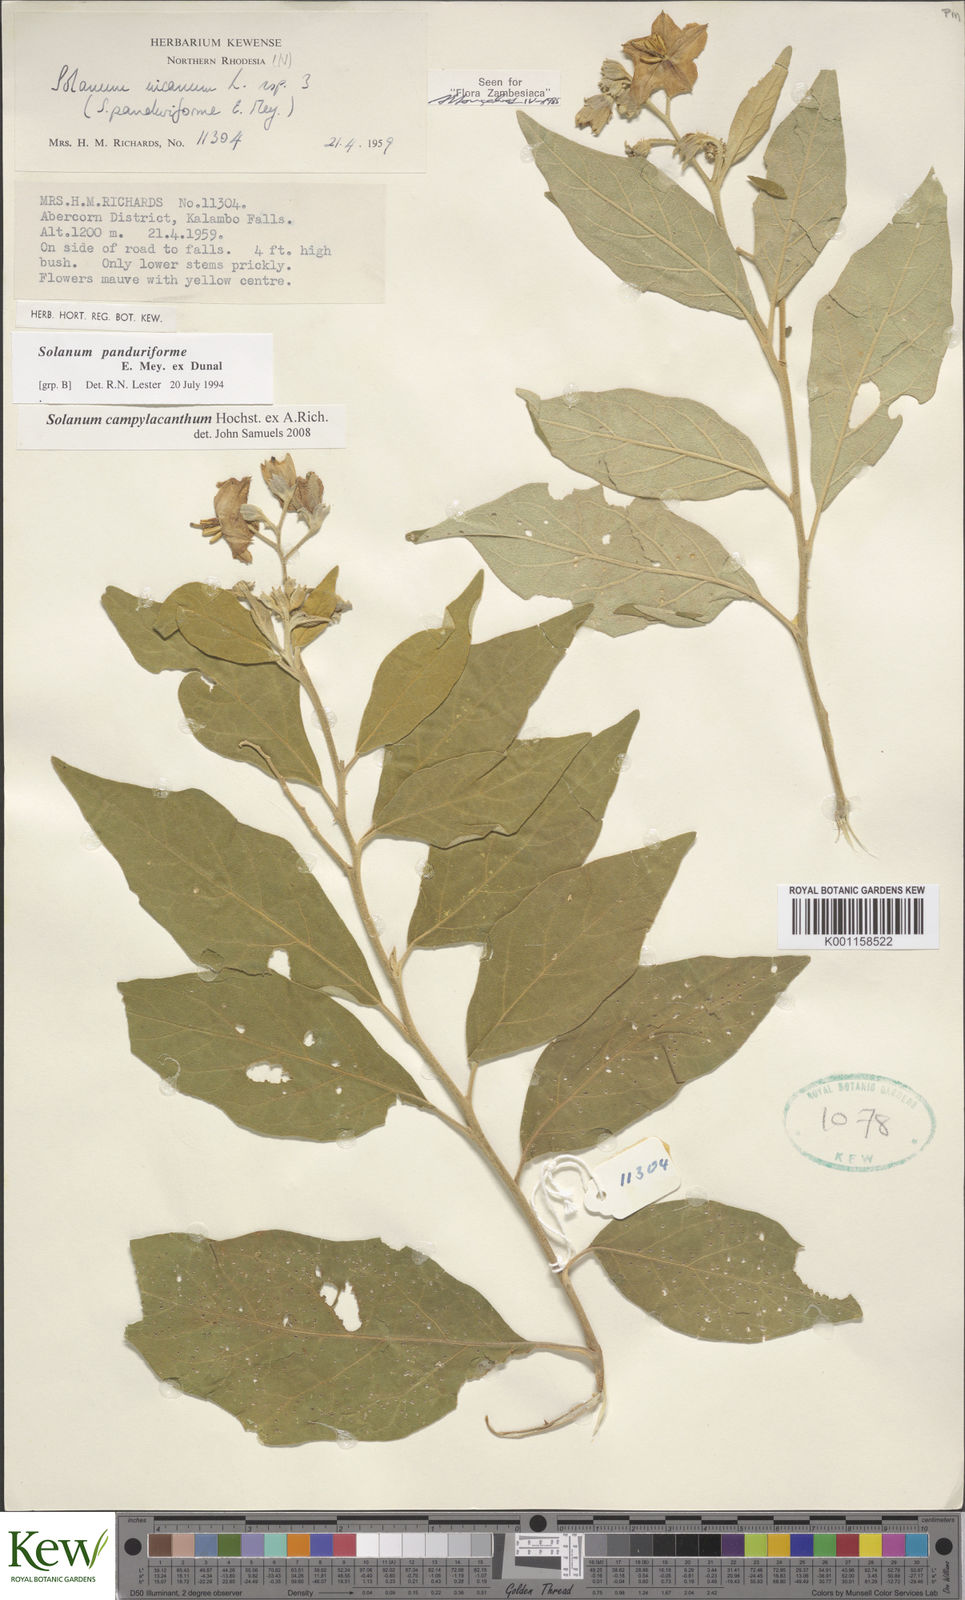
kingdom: Plantae
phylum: Tracheophyta
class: Magnoliopsida
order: Solanales
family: Solanaceae
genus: Solanum
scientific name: Solanum campylacanthum
